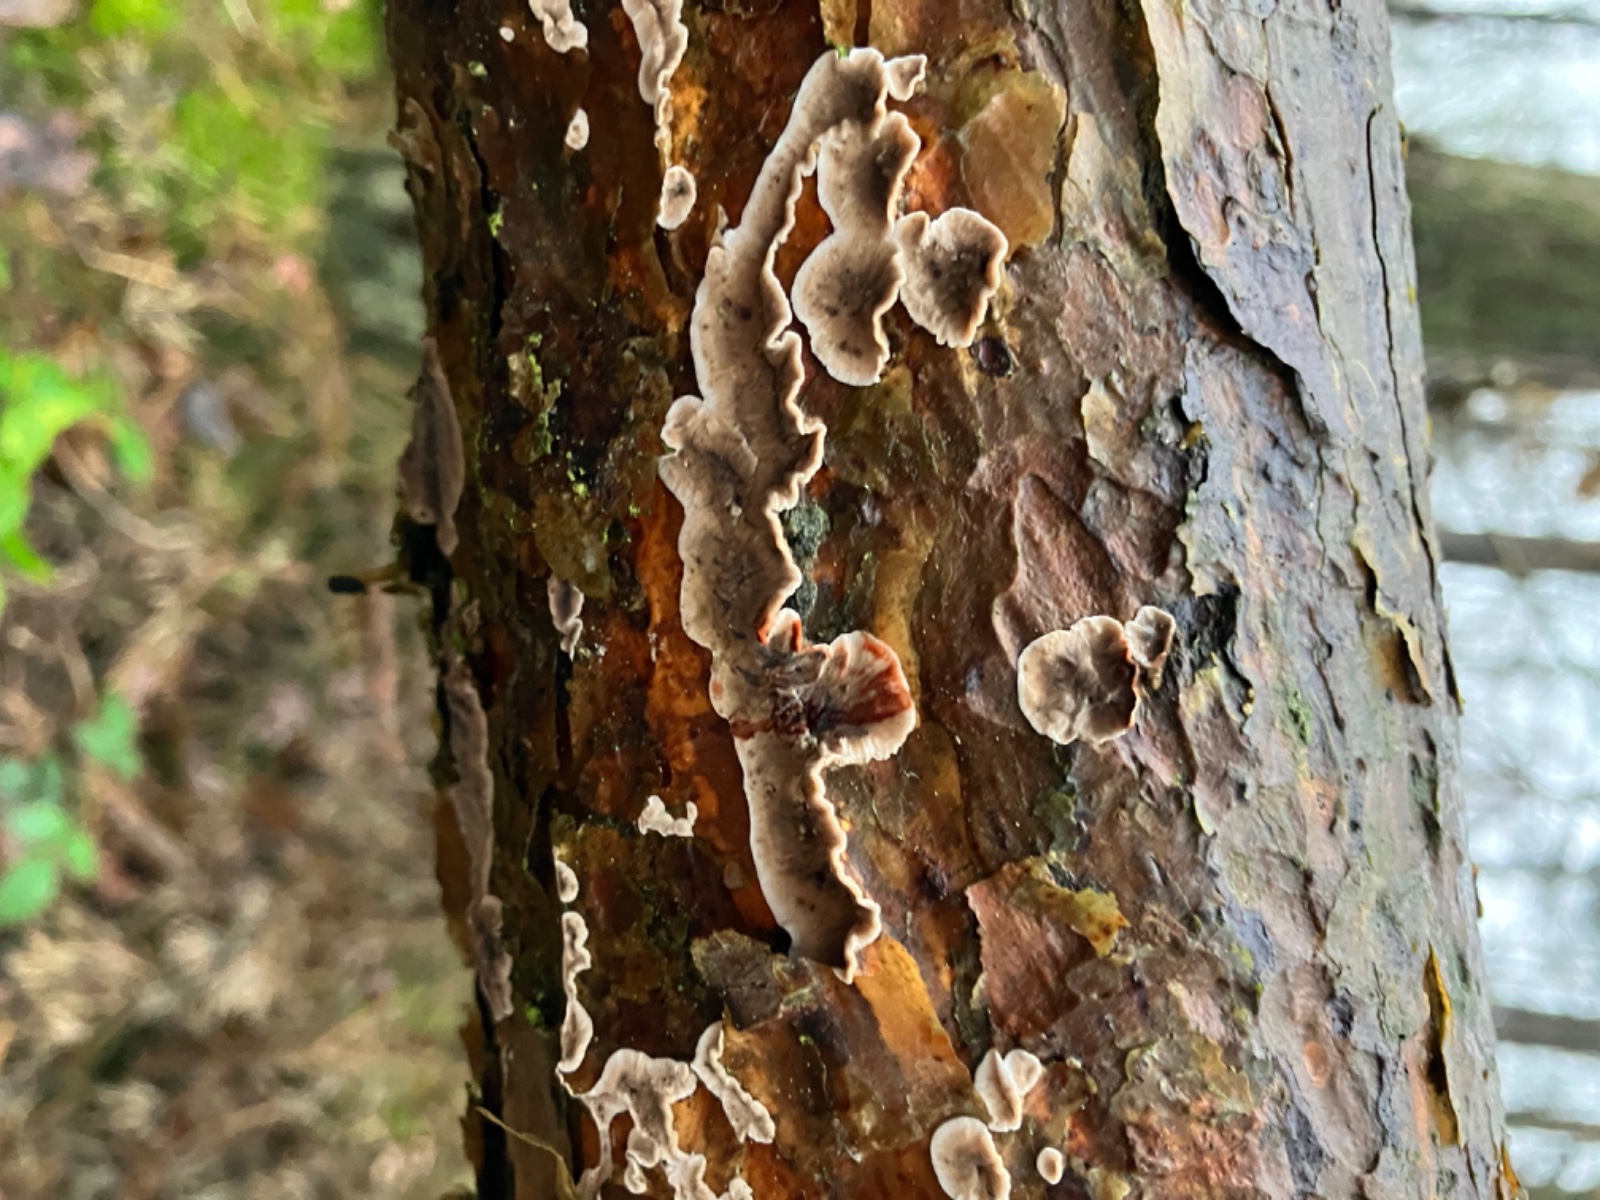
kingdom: Fungi
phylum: Basidiomycota
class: Agaricomycetes
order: Russulales
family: Stereaceae
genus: Stereum
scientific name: Stereum sanguinolentum
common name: blødende lædersvamp
